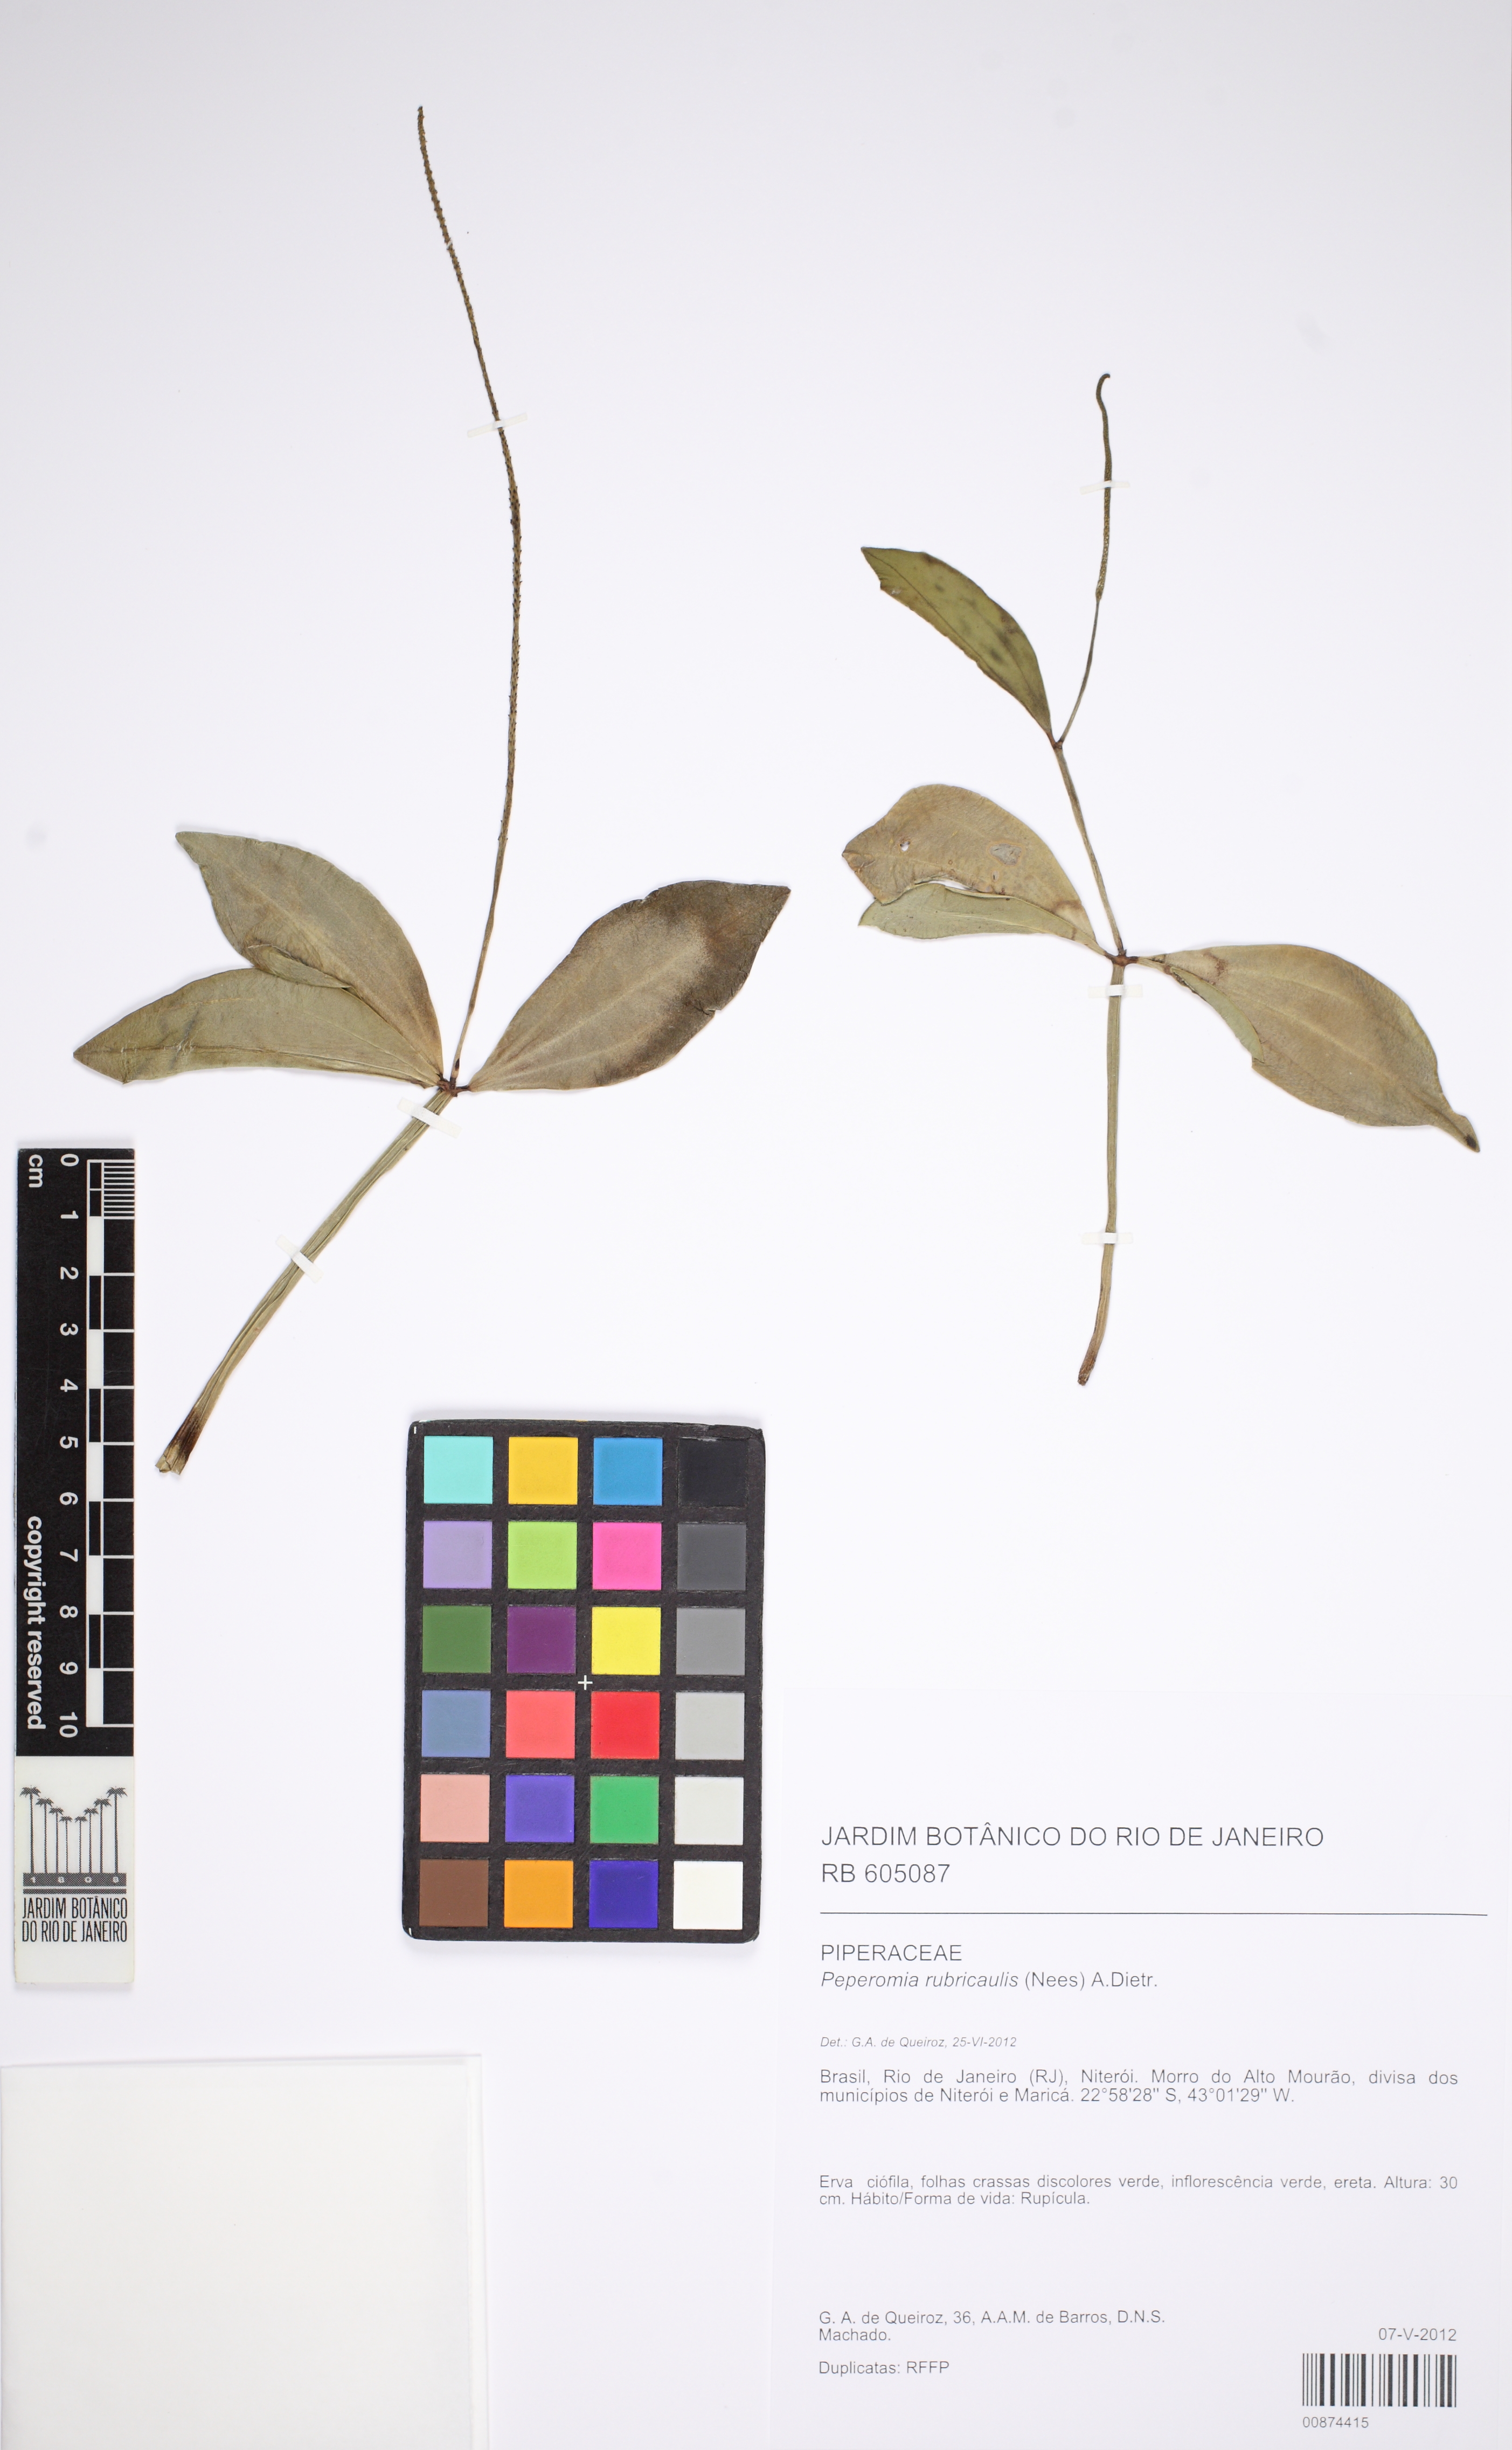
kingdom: Plantae
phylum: Tracheophyta
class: Magnoliopsida
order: Piperales
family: Piperaceae
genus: Peperomia
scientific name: Peperomia rubricaulis
